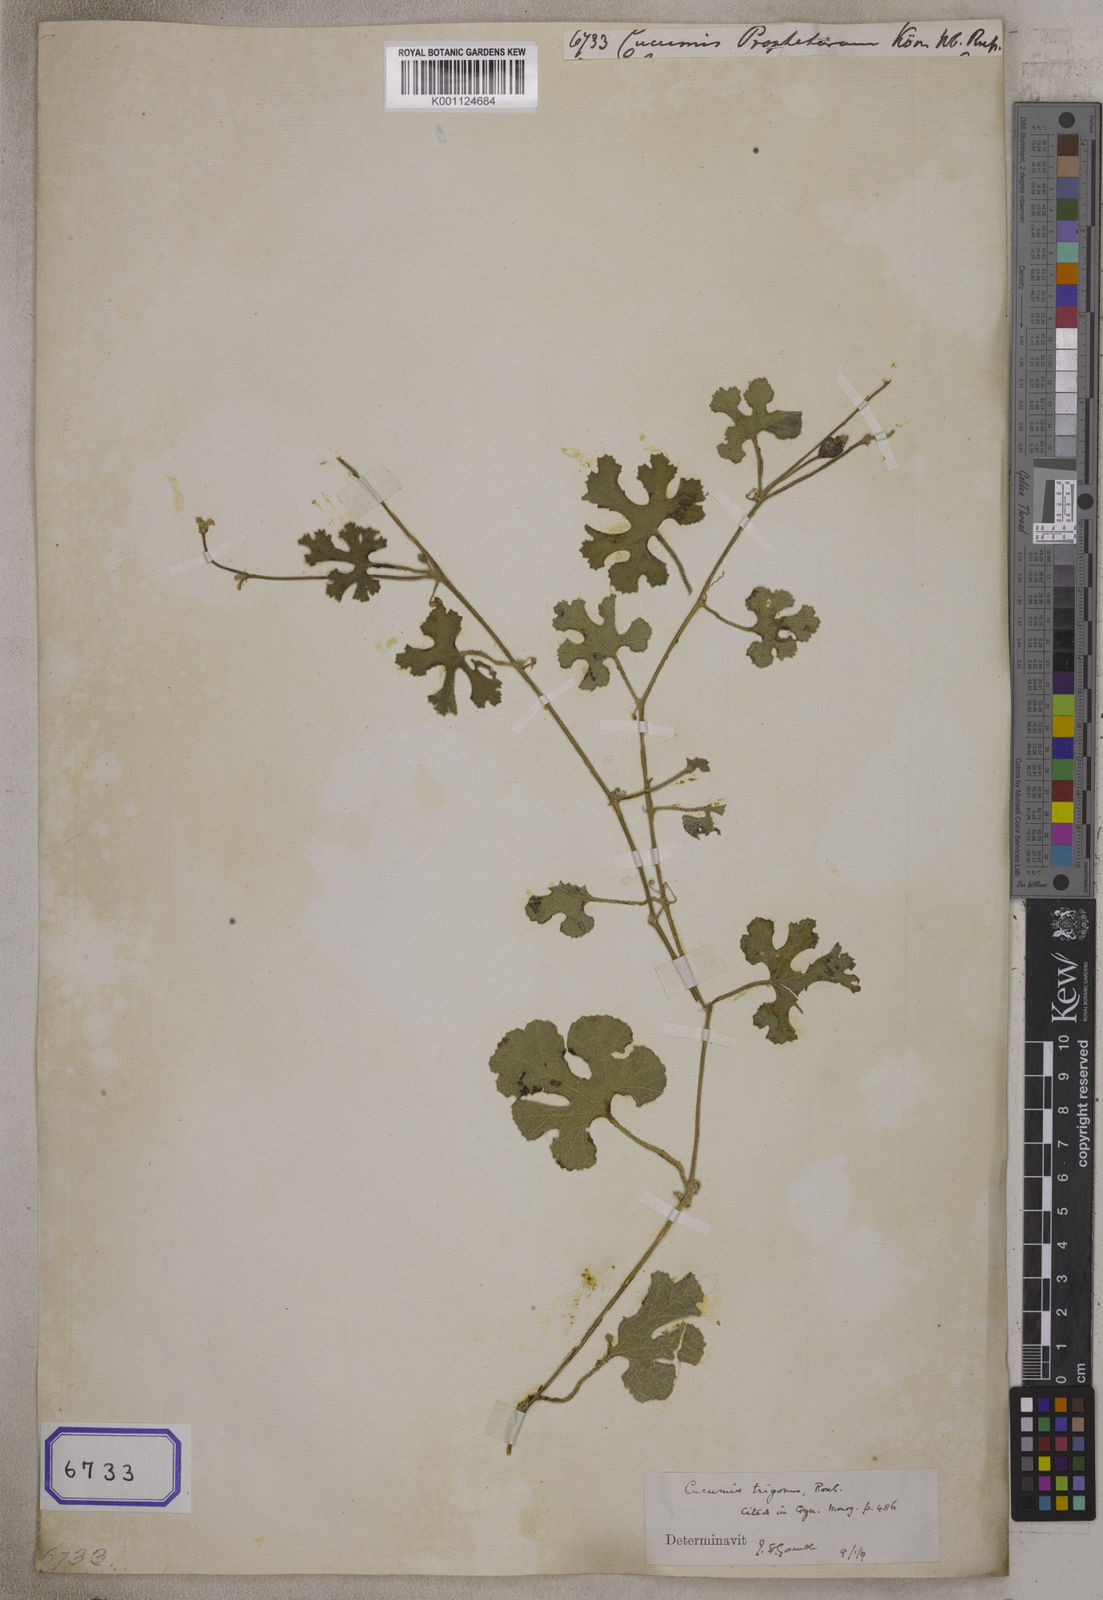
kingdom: Plantae
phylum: Tracheophyta
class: Magnoliopsida
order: Cucurbitales
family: Cucurbitaceae
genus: Cucumis
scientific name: Cucumis prophetarum
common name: Wild cucumber
